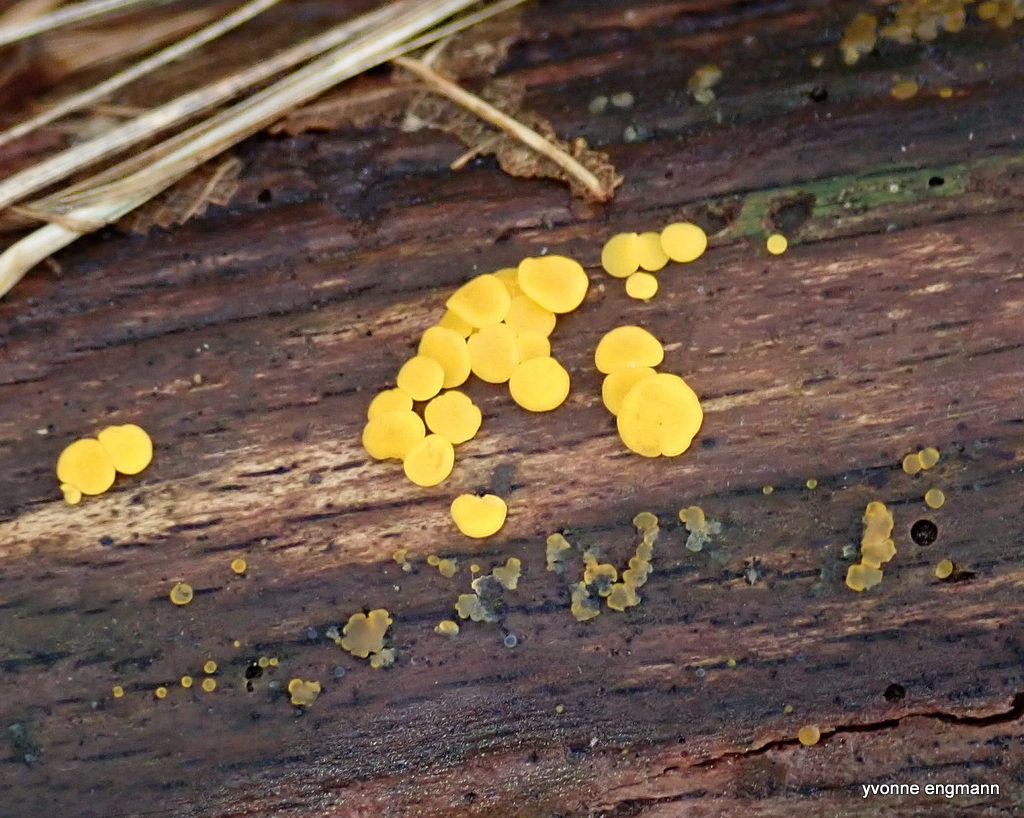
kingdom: Fungi
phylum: Ascomycota
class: Leotiomycetes
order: Helotiales
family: Pezizellaceae
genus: Calycina
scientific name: Calycina citrina
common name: almindelig gulskive
